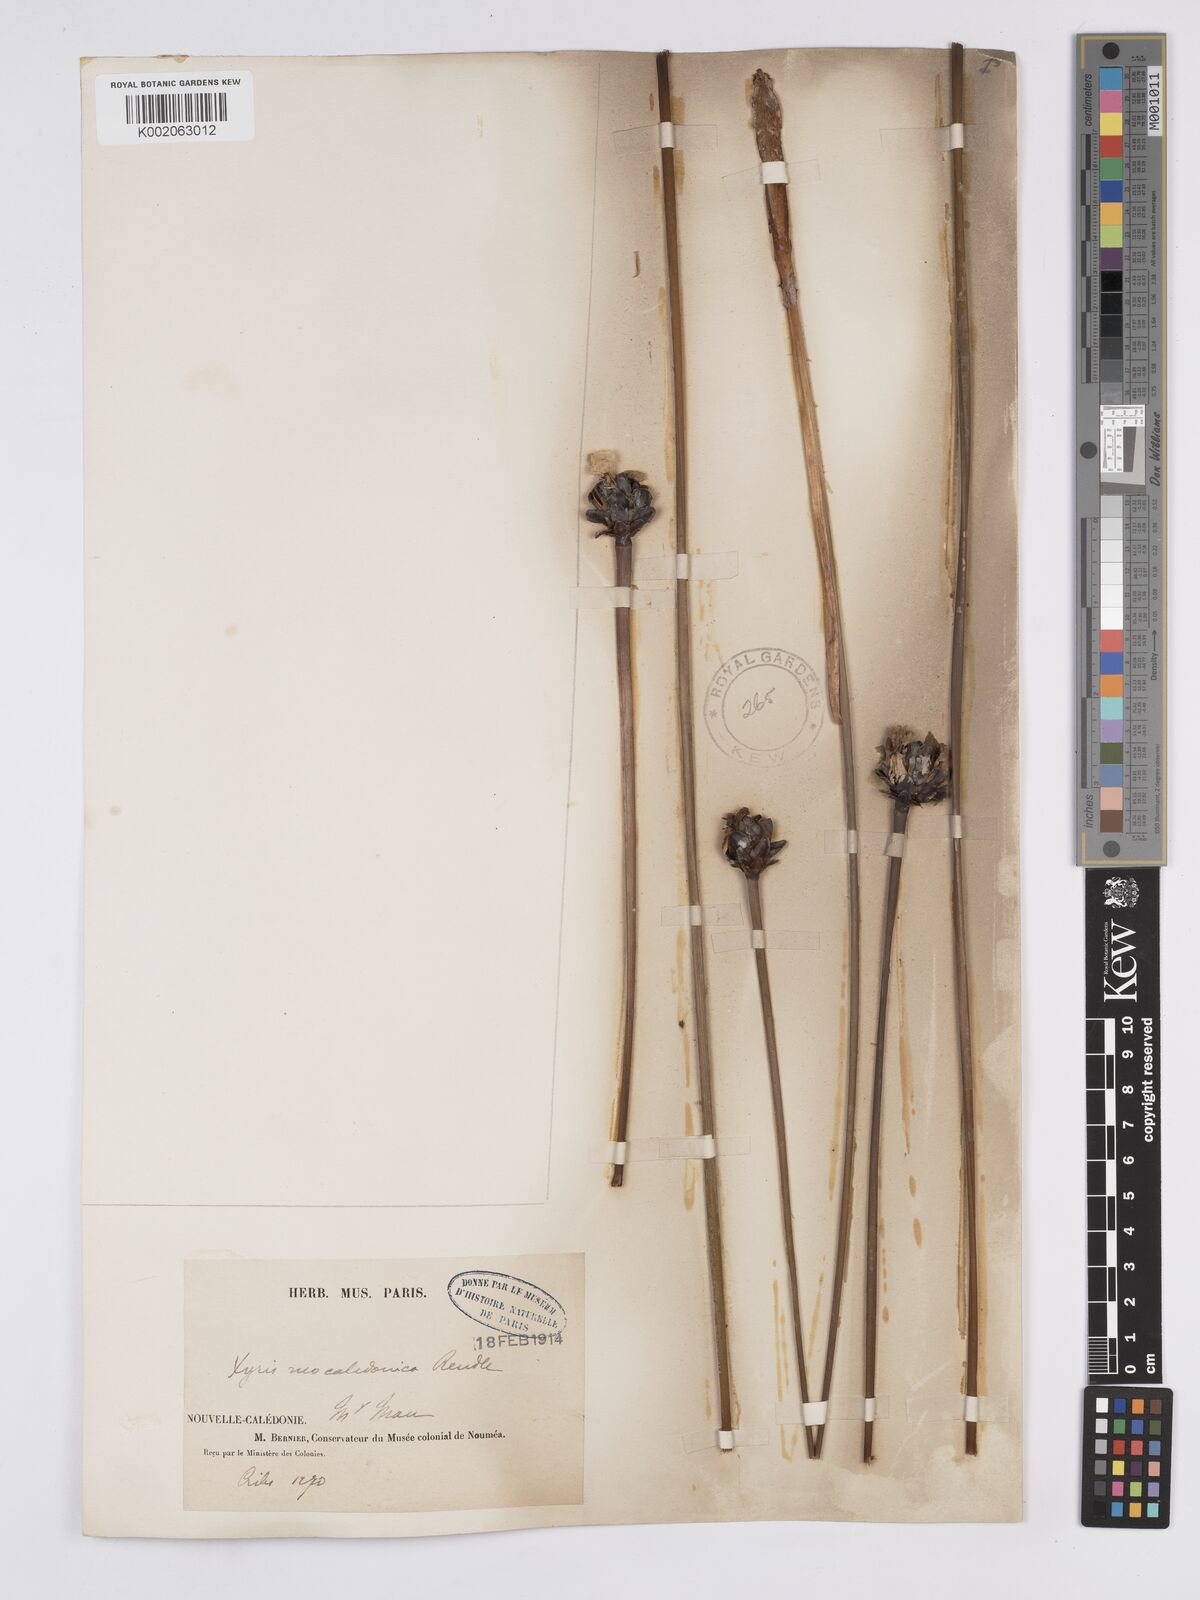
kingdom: Plantae
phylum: Tracheophyta
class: Liliopsida
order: Poales
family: Xyridaceae
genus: Xyris
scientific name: Xyris neocaledonica
